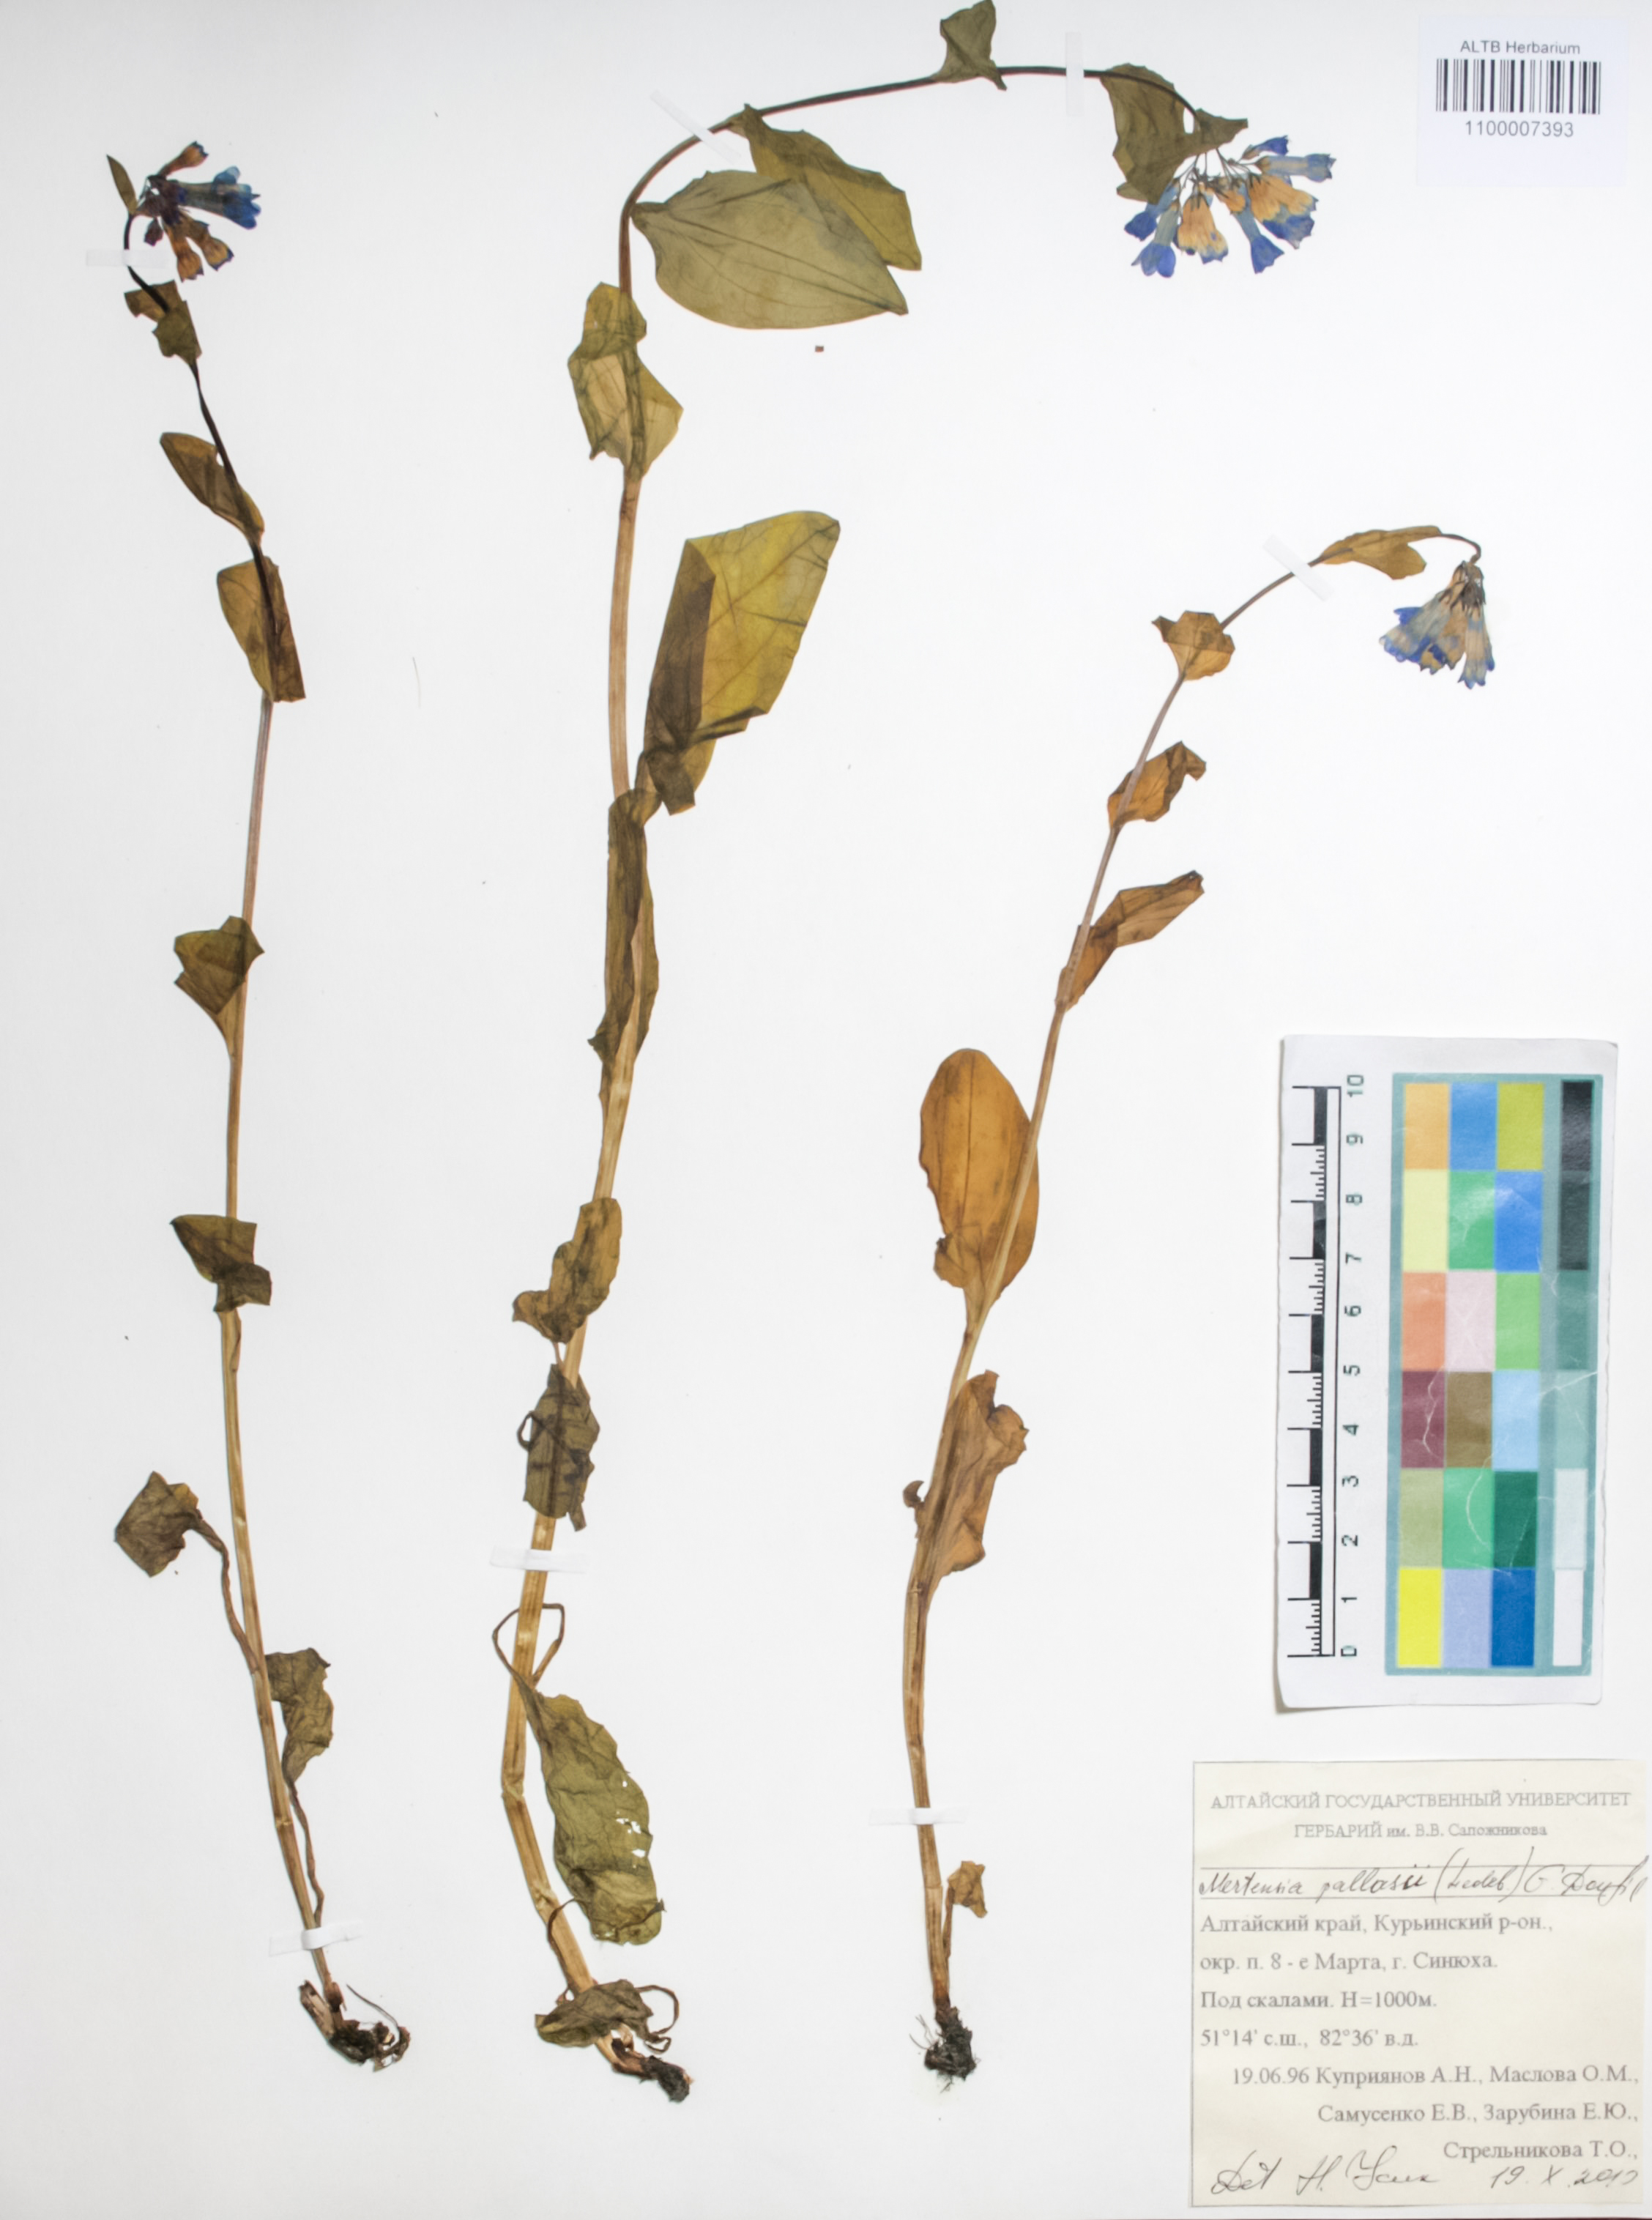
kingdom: Plantae
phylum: Tracheophyta
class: Magnoliopsida
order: Boraginales
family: Boraginaceae
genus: Mertensia
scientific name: Mertensia pallasii
